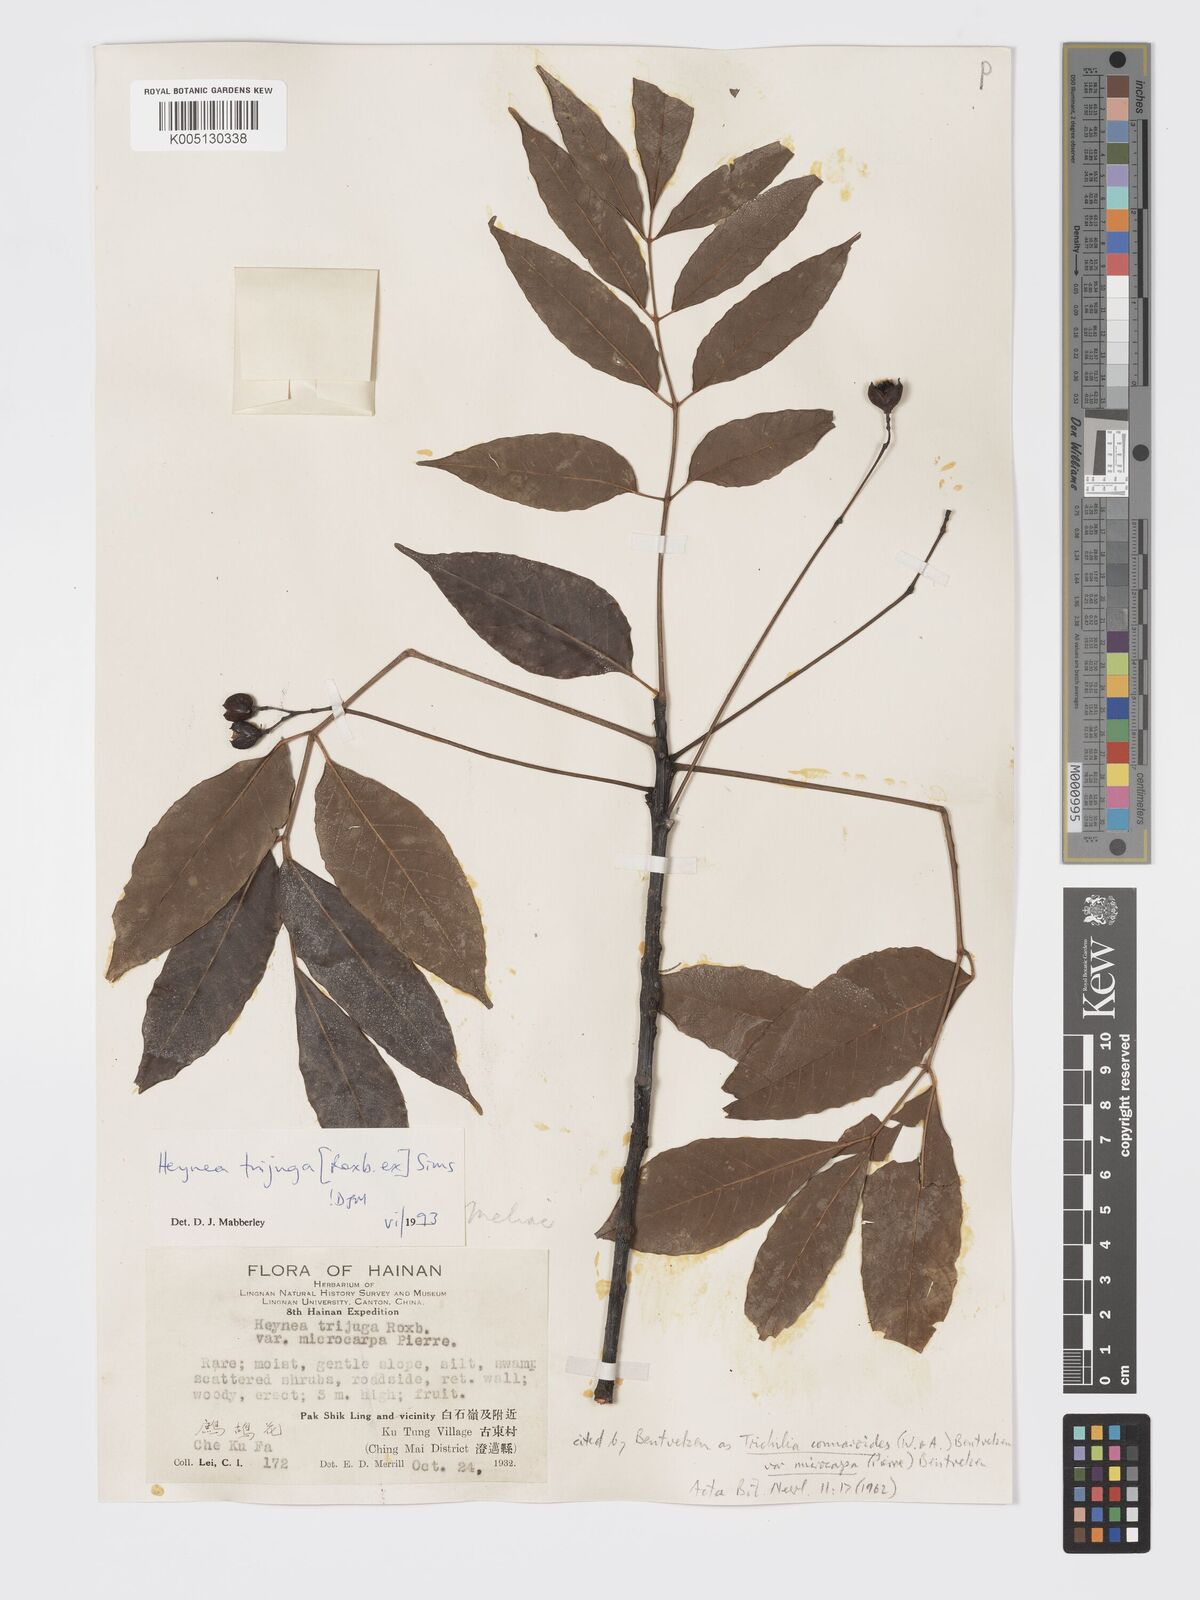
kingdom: Plantae
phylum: Tracheophyta
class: Magnoliopsida
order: Sapindales
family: Meliaceae
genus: Heynea
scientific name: Heynea trijuga
